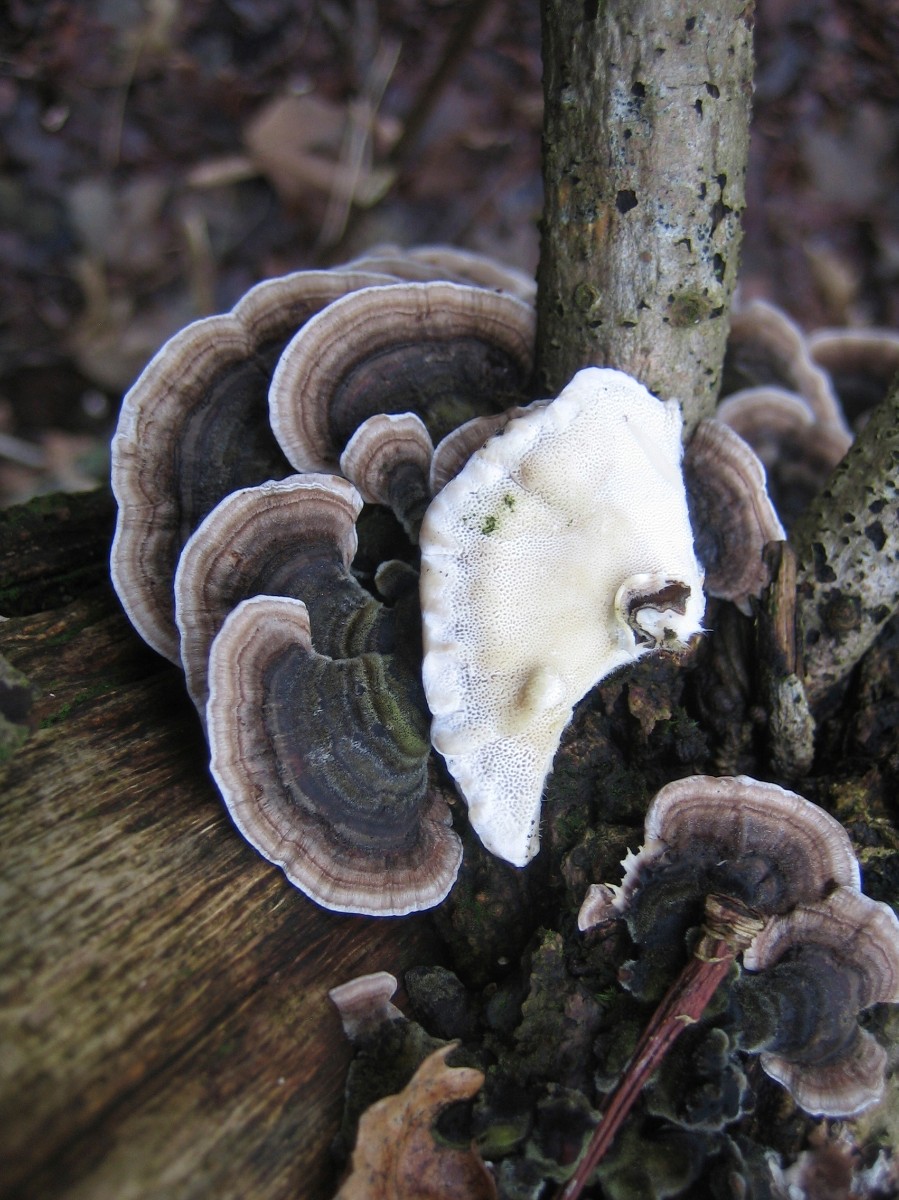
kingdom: Fungi
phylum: Basidiomycota
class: Agaricomycetes
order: Polyporales
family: Polyporaceae
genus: Trametes
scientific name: Trametes versicolor
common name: broget læderporesvamp
